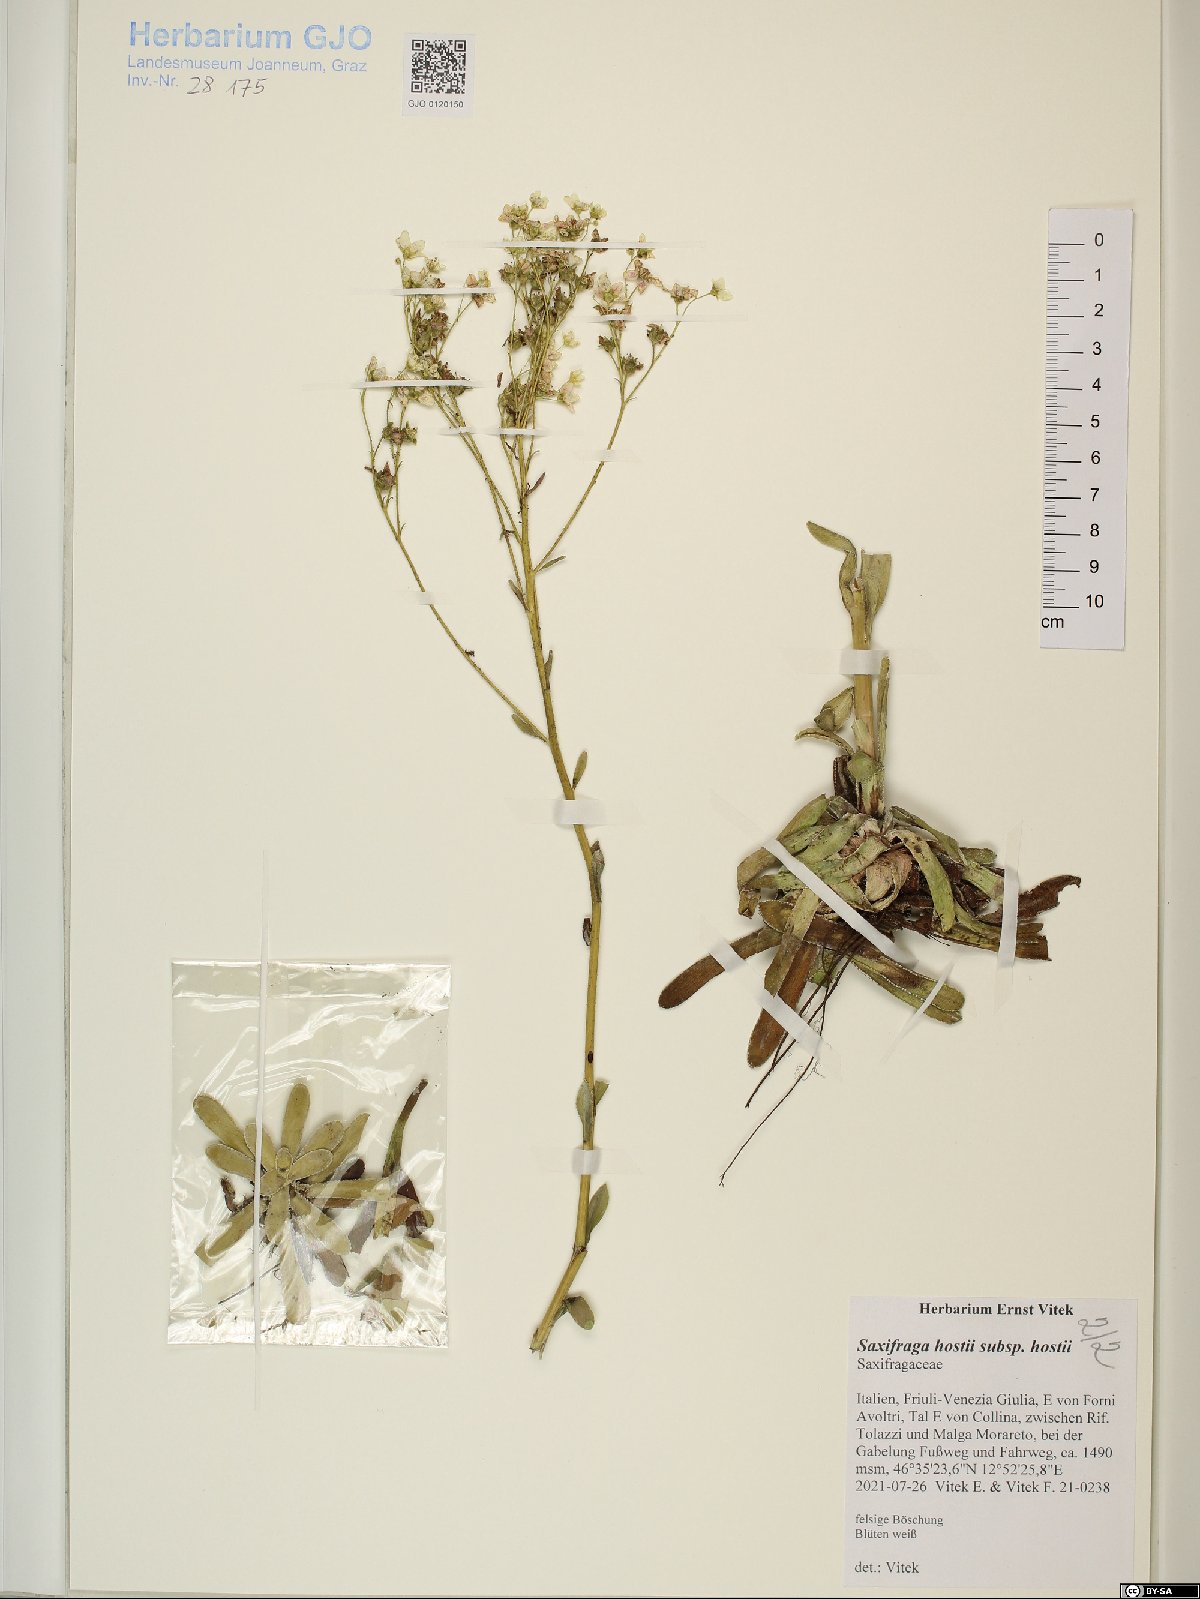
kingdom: Plantae
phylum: Tracheophyta
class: Magnoliopsida
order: Saxifragales
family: Saxifragaceae
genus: Saxifraga
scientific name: Saxifraga hostii
